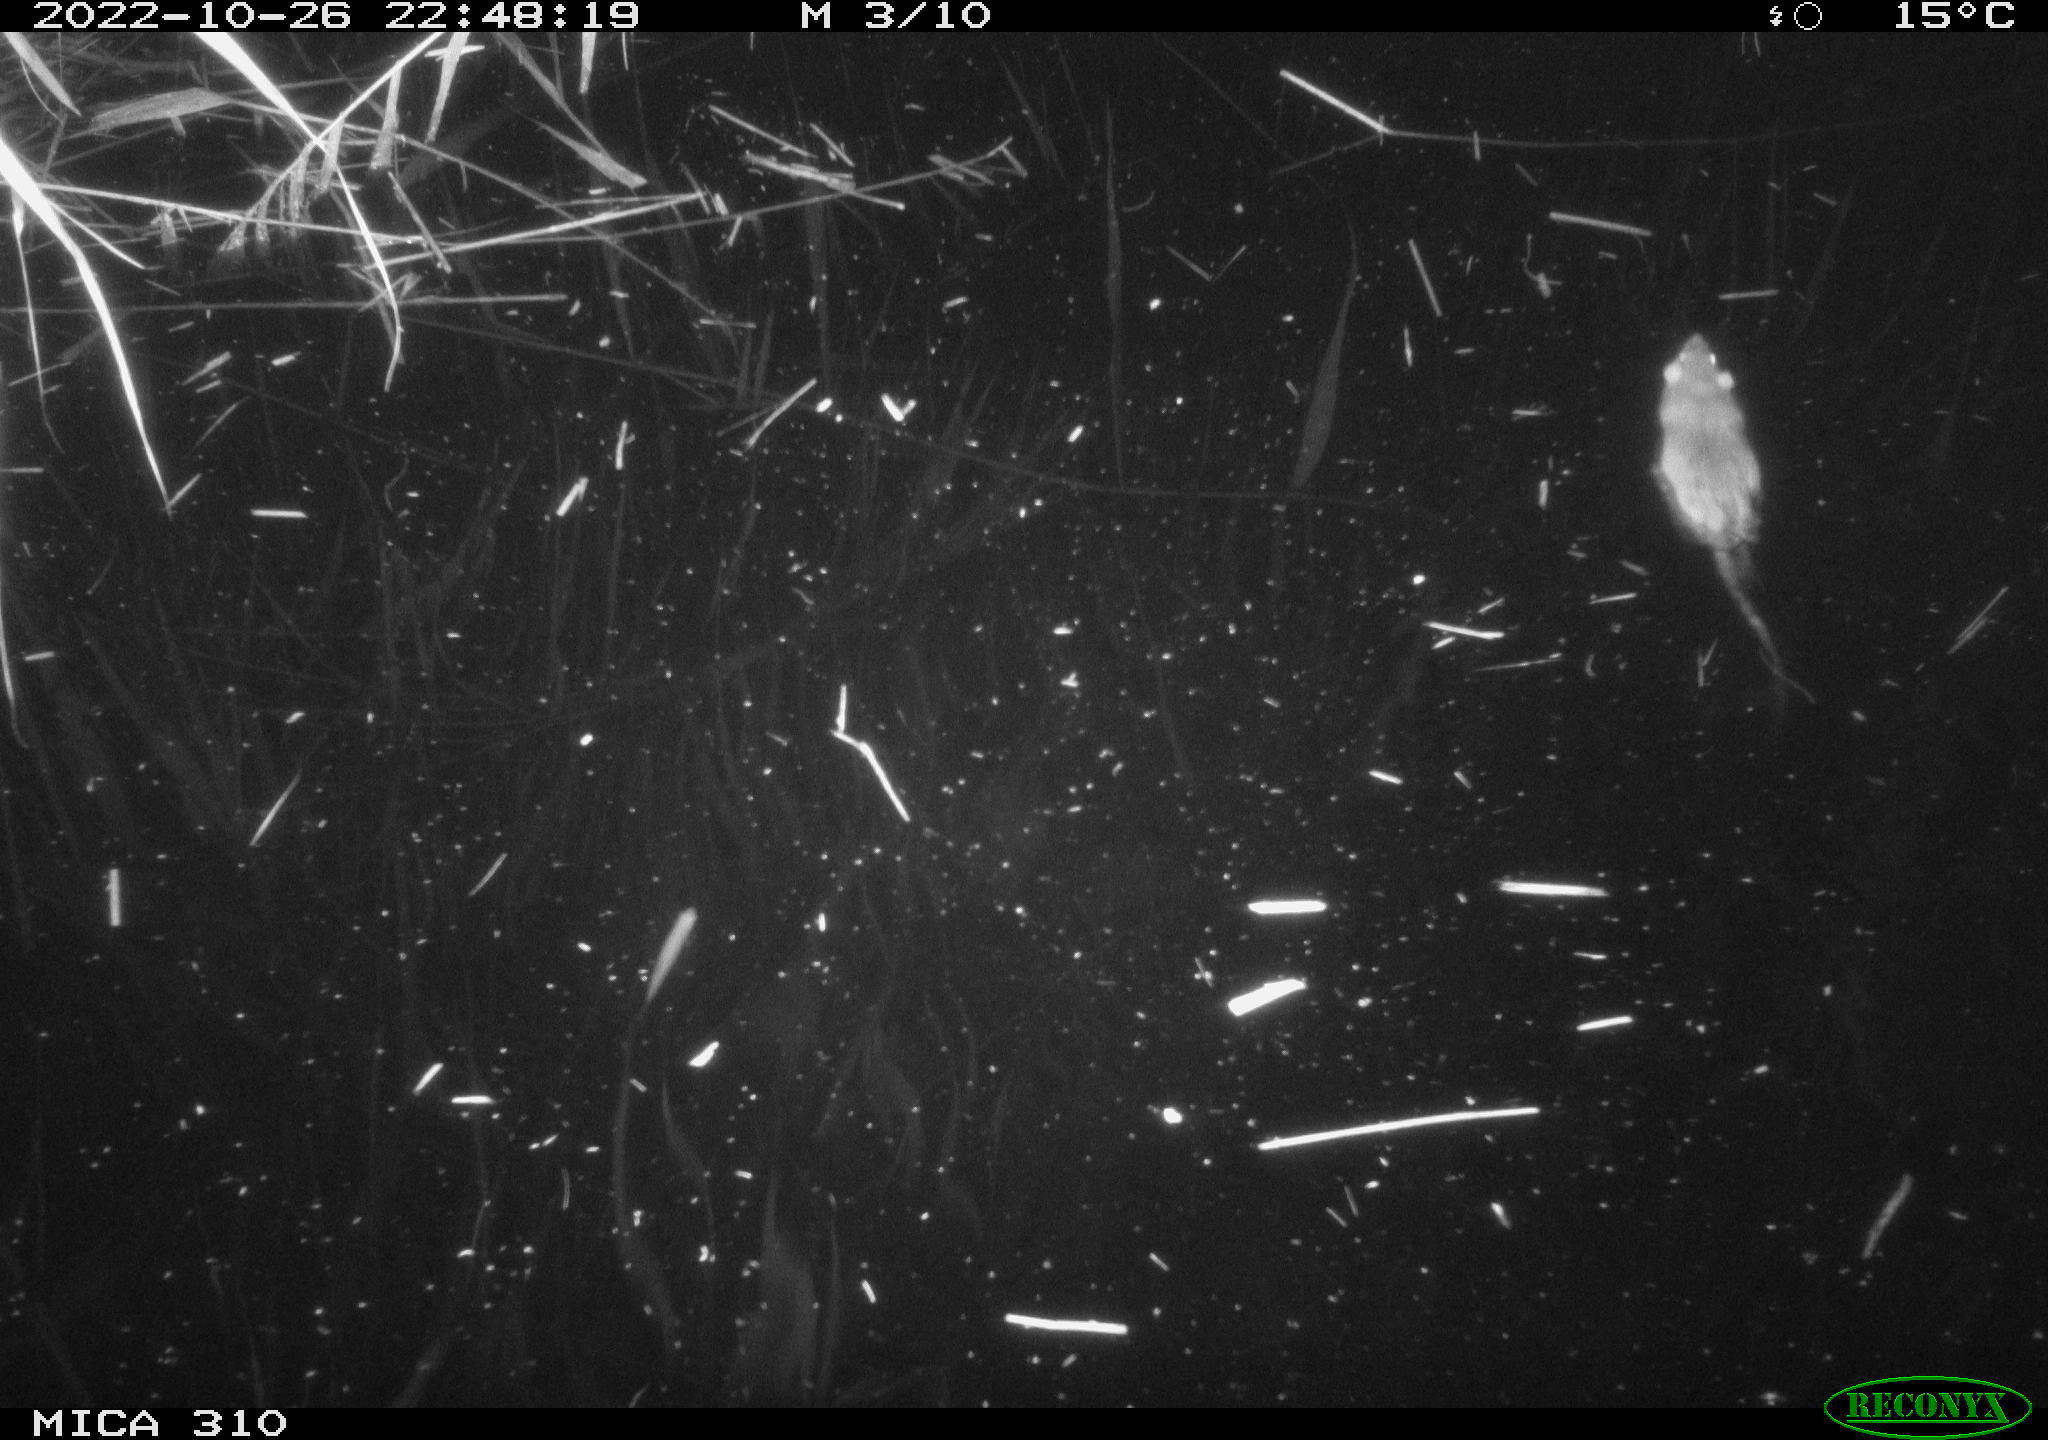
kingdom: Animalia
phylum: Chordata
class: Mammalia
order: Rodentia
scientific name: Rodentia
